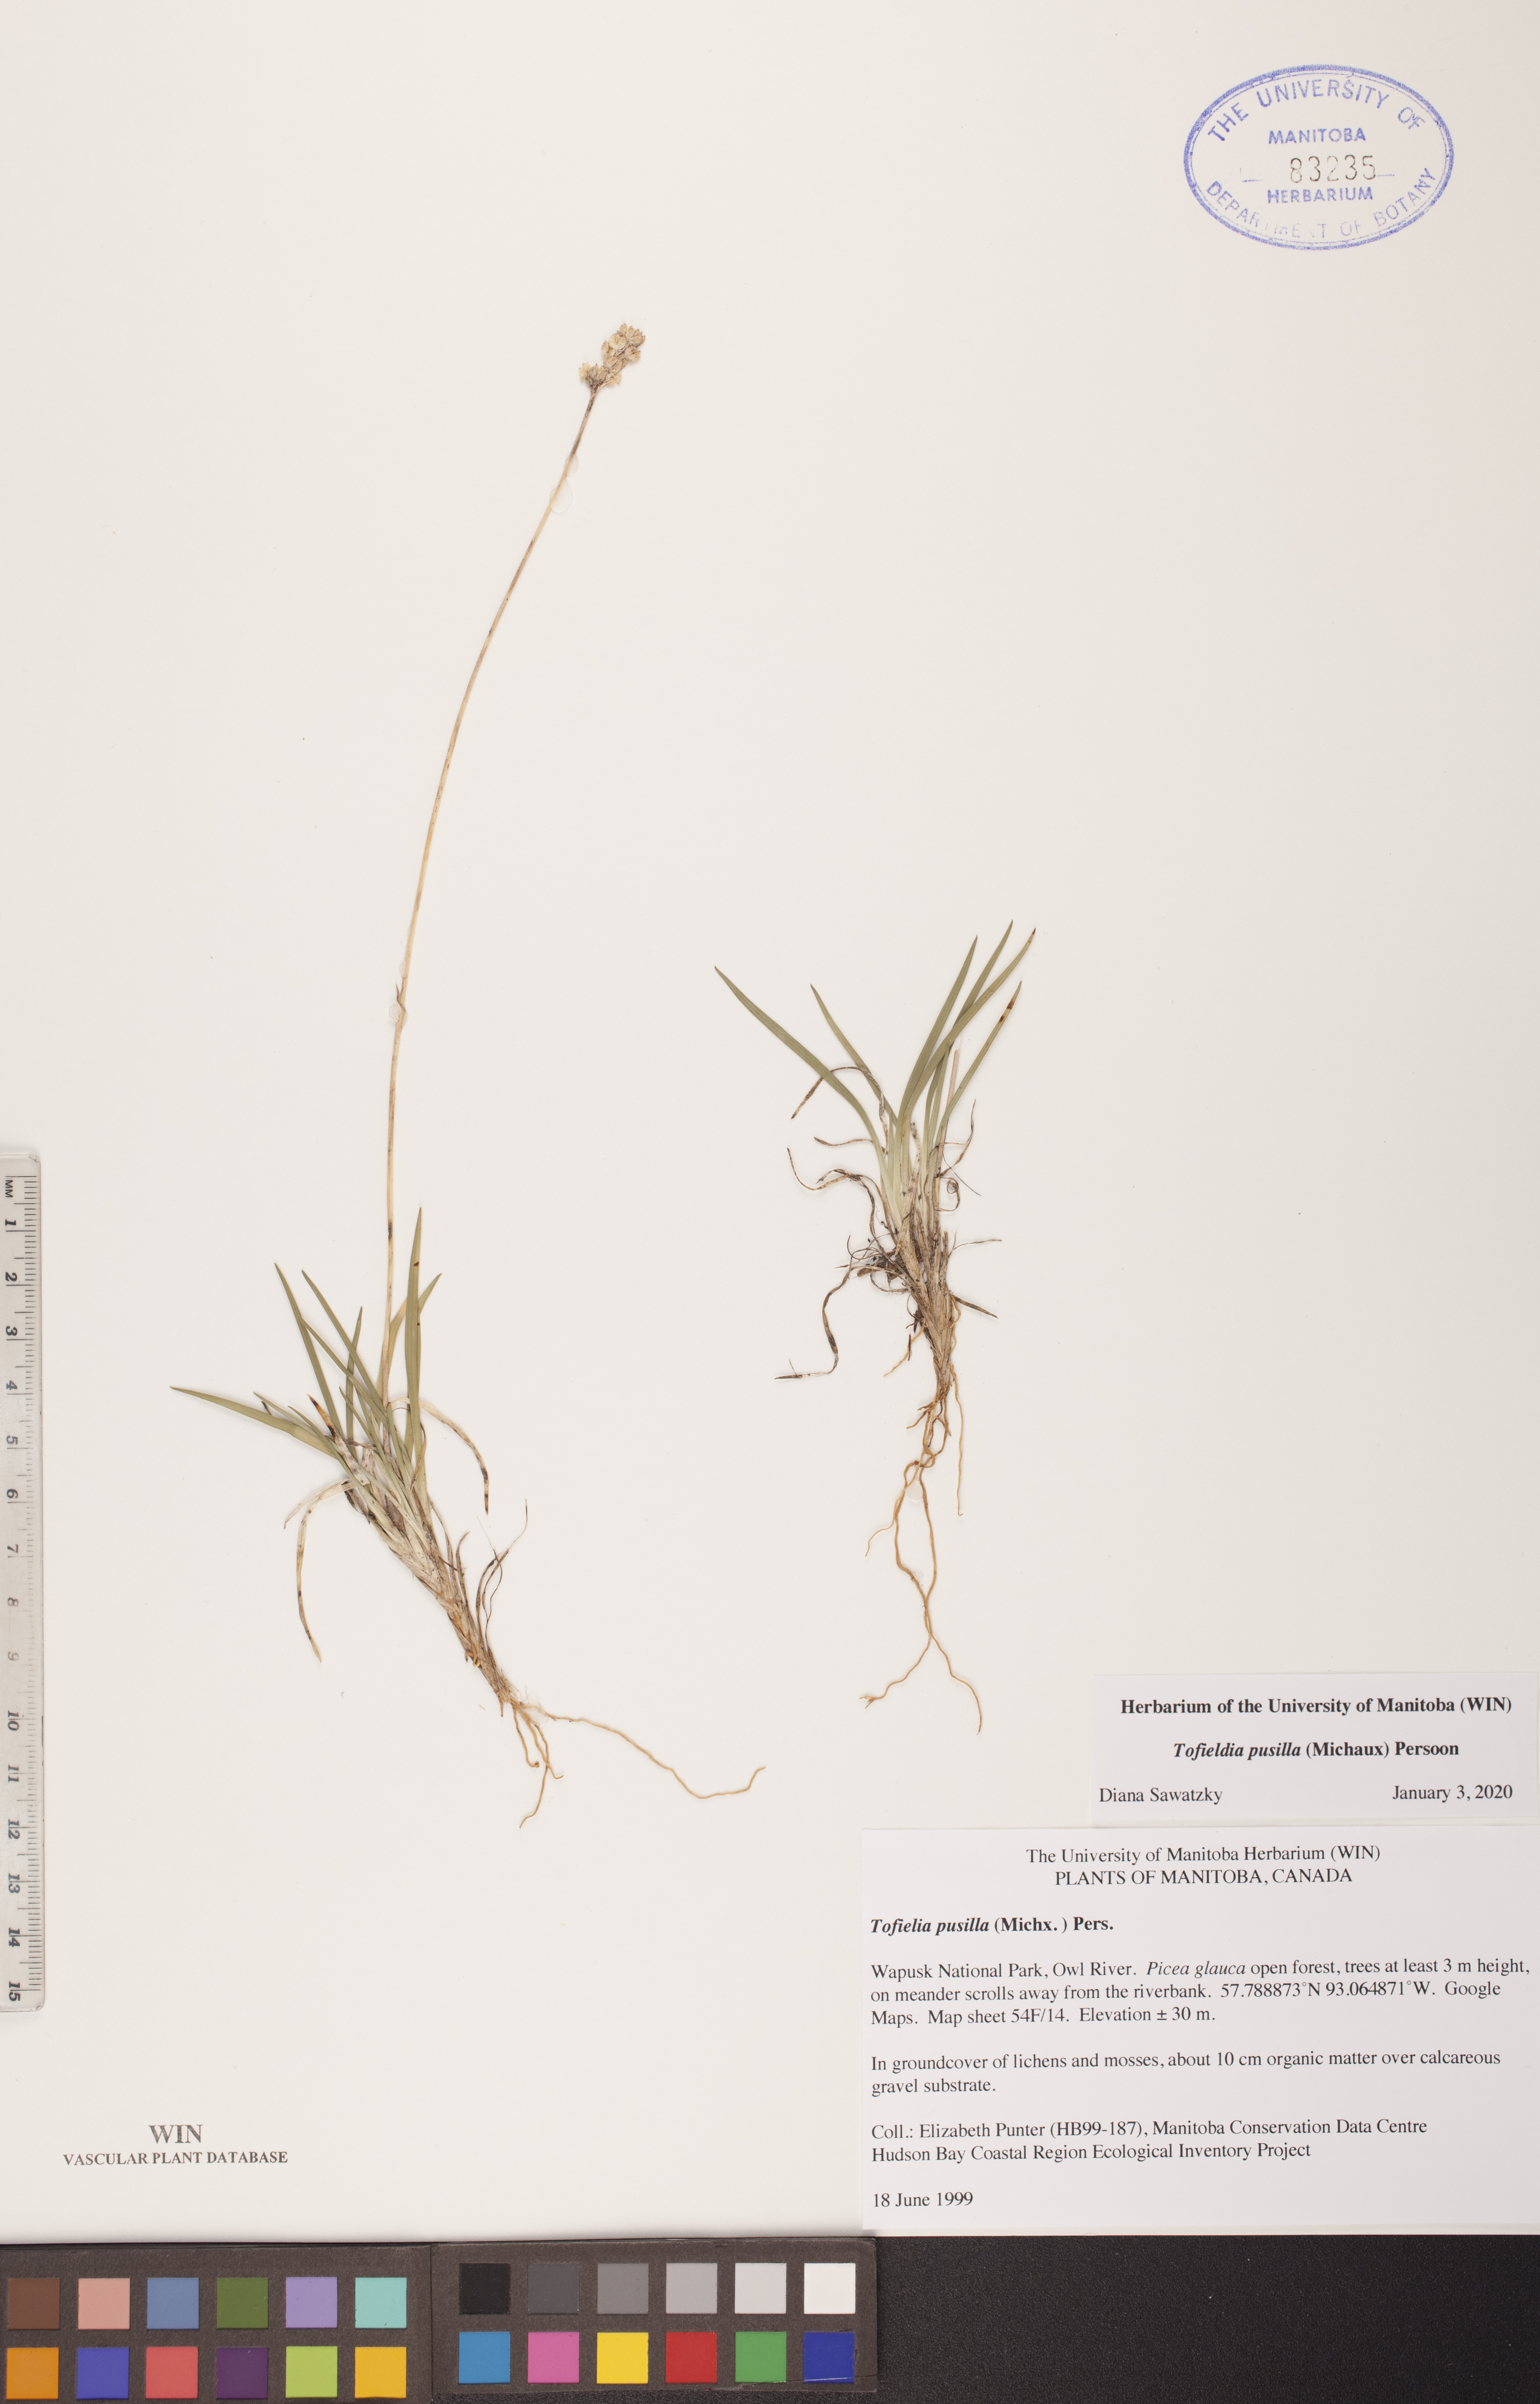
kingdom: Plantae
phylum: Tracheophyta
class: Liliopsida
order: Alismatales
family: Tofieldiaceae
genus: Tofieldia
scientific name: Tofieldia pusilla
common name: Scottish false asphodel
